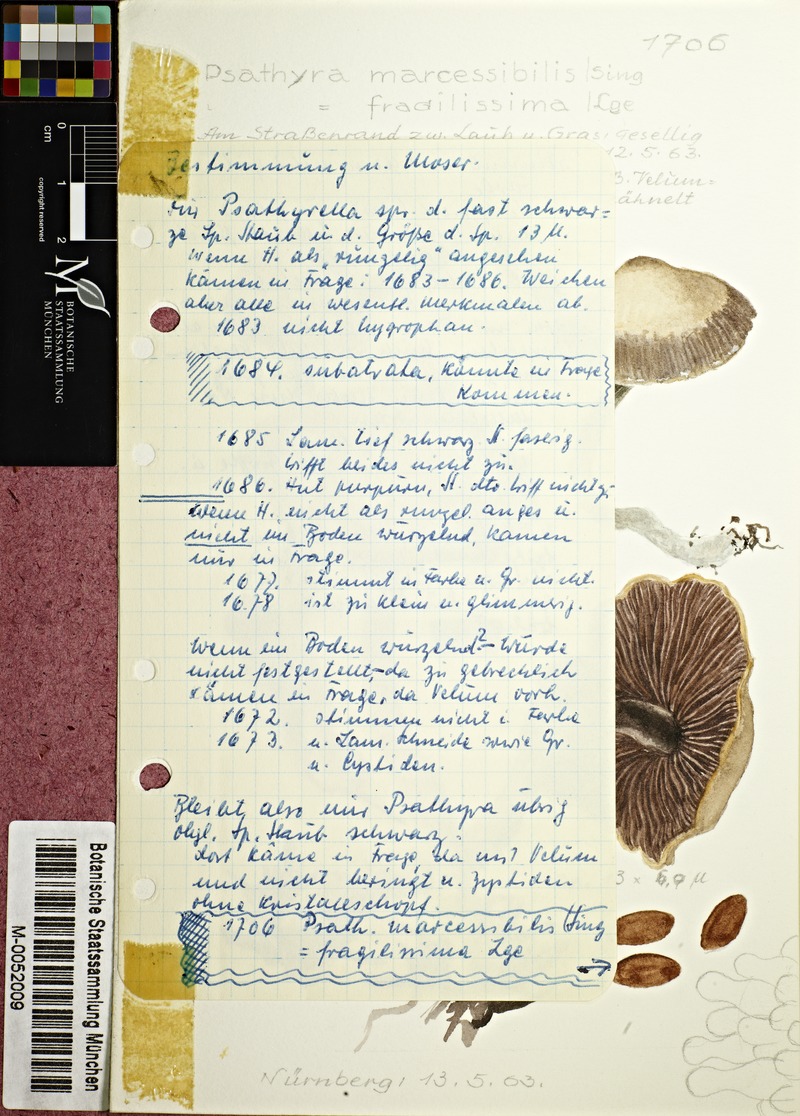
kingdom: Fungi
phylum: Basidiomycota
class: Agaricomycetes
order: Agaricales
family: Psathyrellaceae
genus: Coprinopsis
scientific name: Coprinopsis marcescibilis
